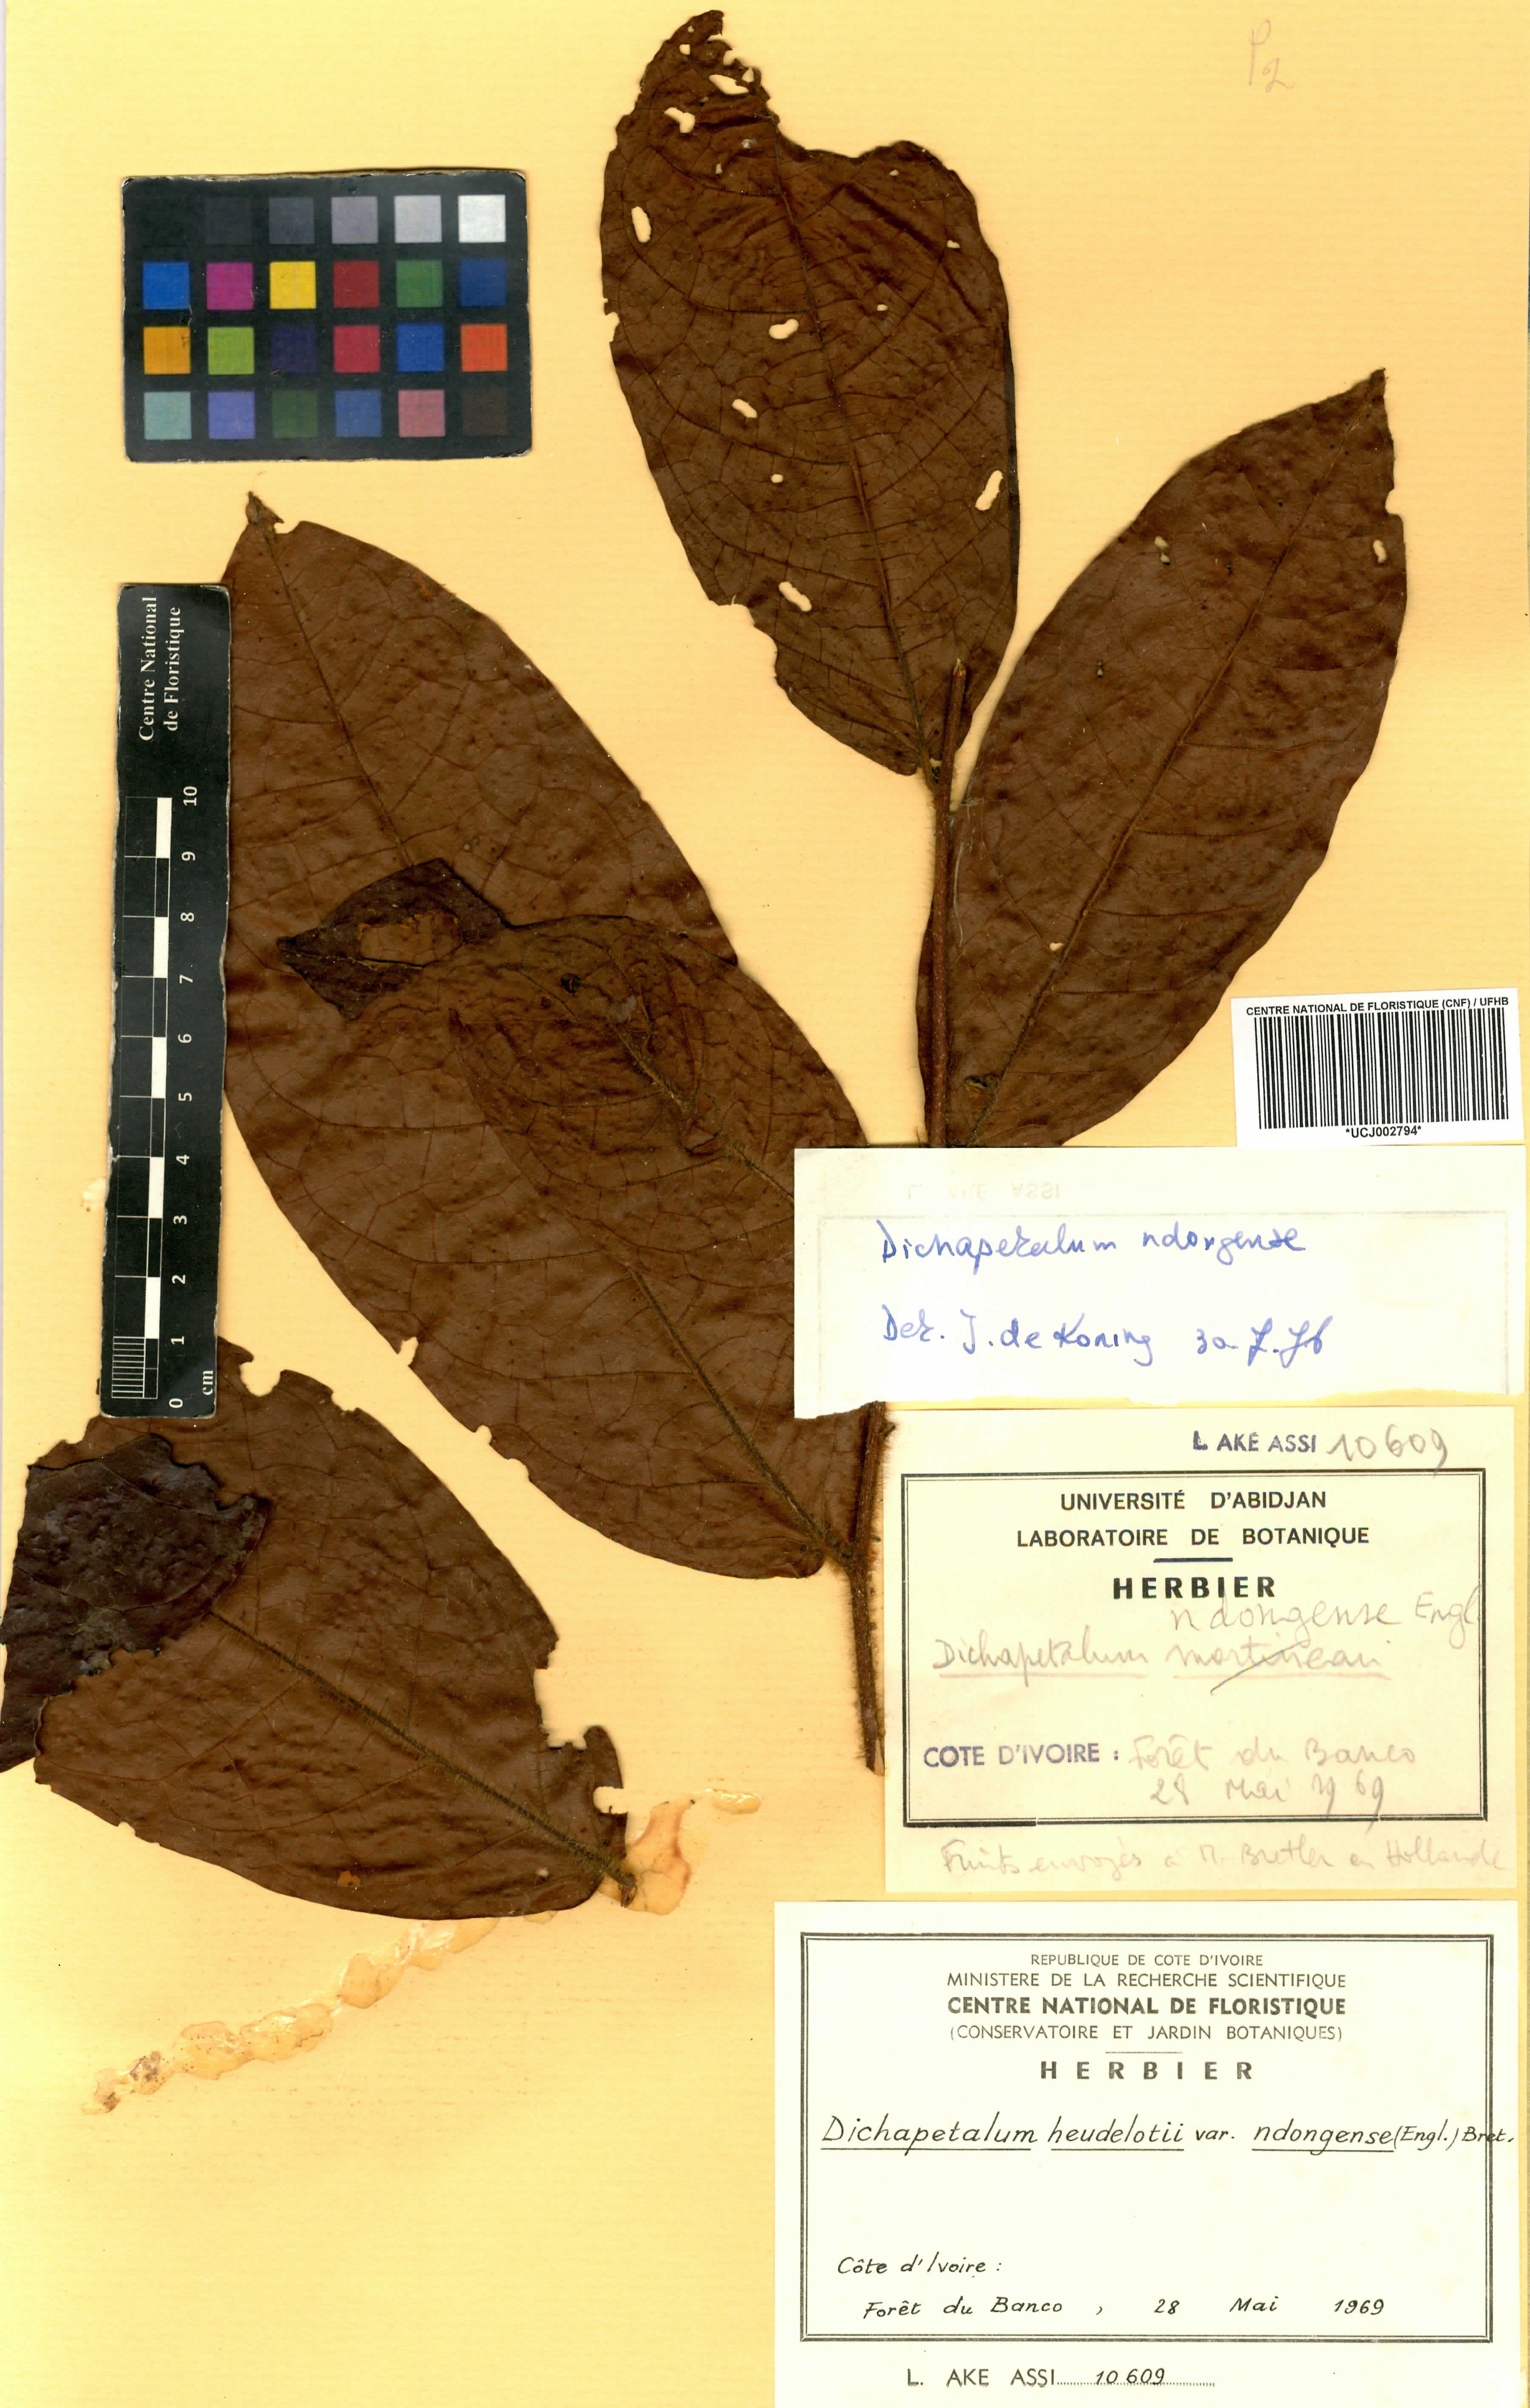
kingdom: Plantae
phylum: Tracheophyta
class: Magnoliopsida
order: Malpighiales
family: Dichapetalaceae
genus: Dichapetalum
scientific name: Dichapetalum heudelotii
